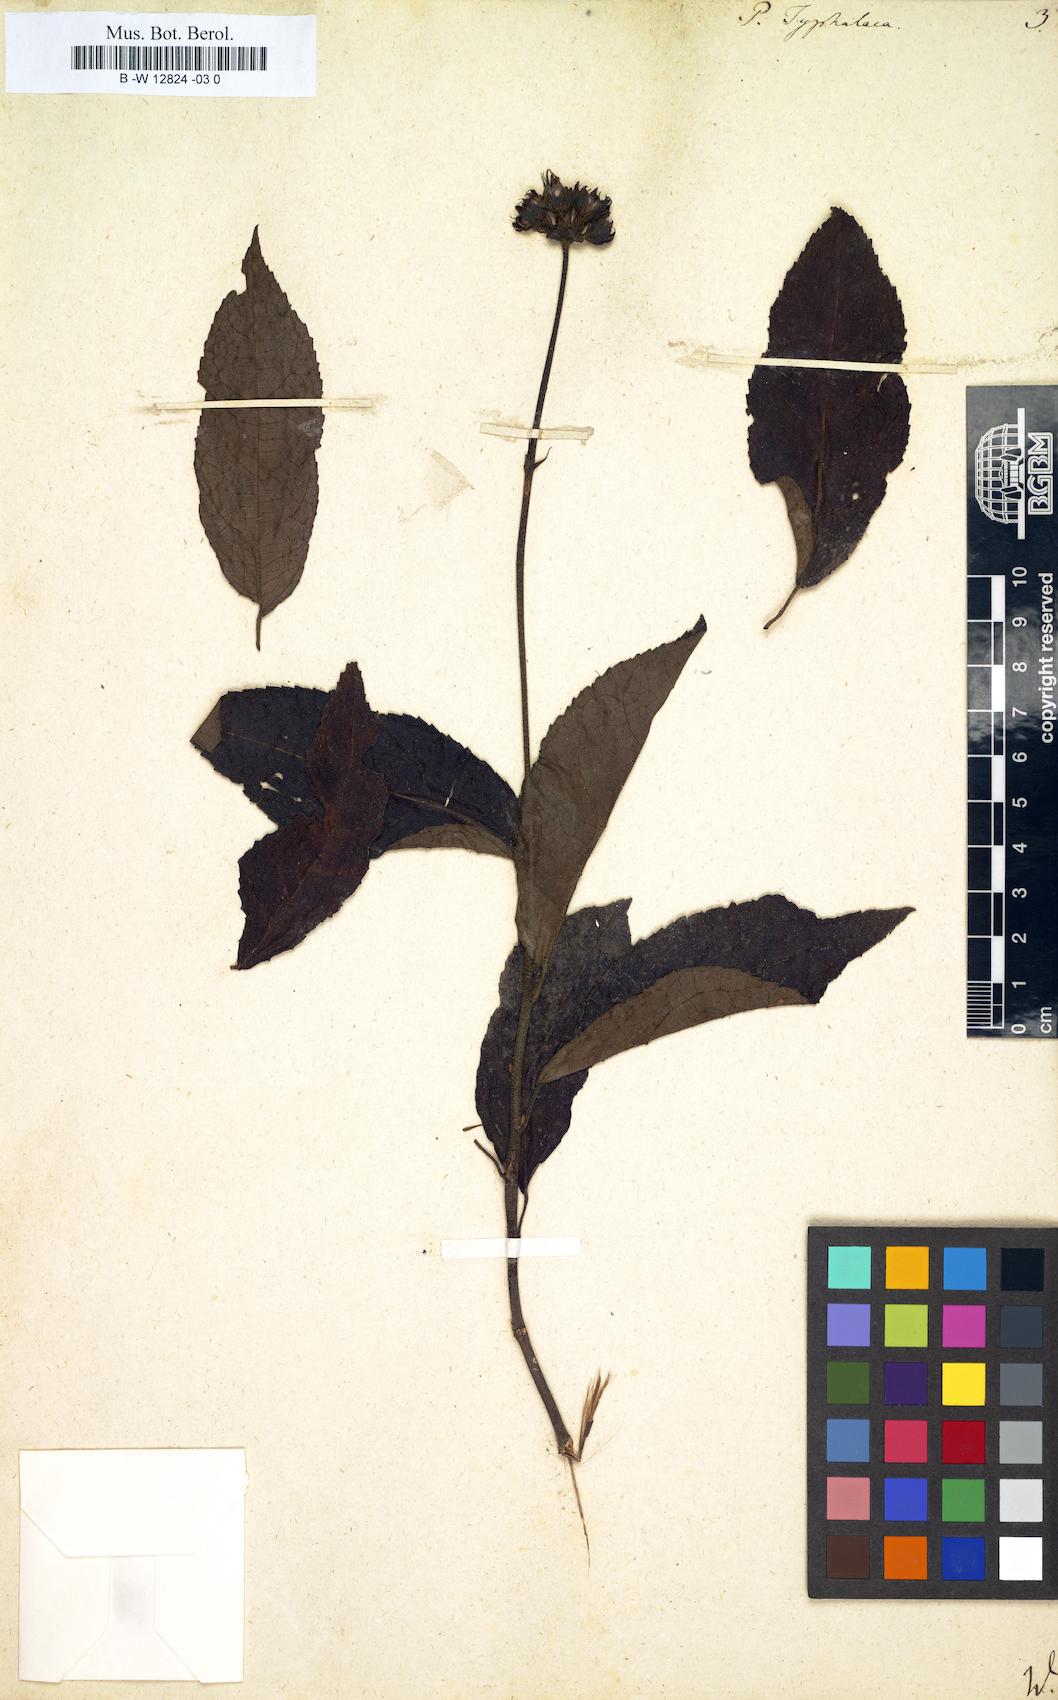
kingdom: Plantae
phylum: Tracheophyta
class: Magnoliopsida
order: Malvales
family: Malvaceae
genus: Pavonia
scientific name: Pavonia fruticosa
